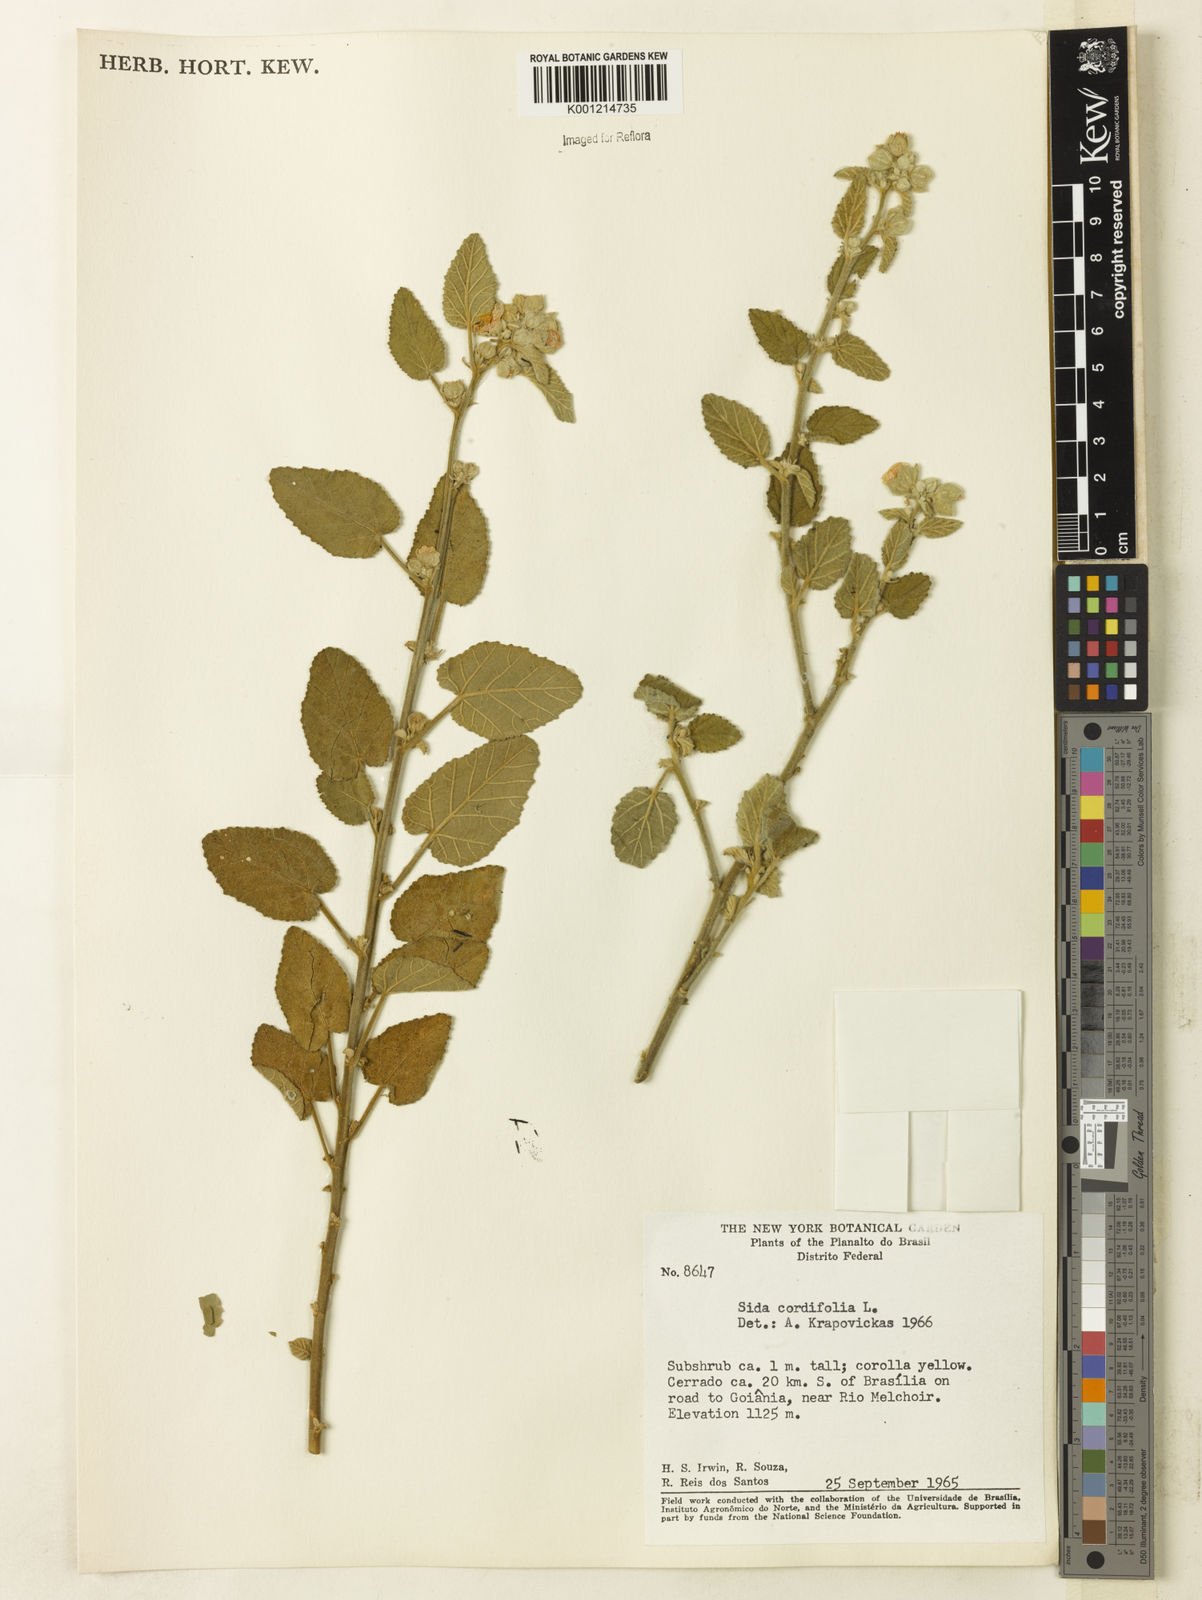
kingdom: Plantae
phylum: Tracheophyta
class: Magnoliopsida
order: Malvales
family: Malvaceae
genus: Sida
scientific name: Sida cordifolia
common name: Ilima
